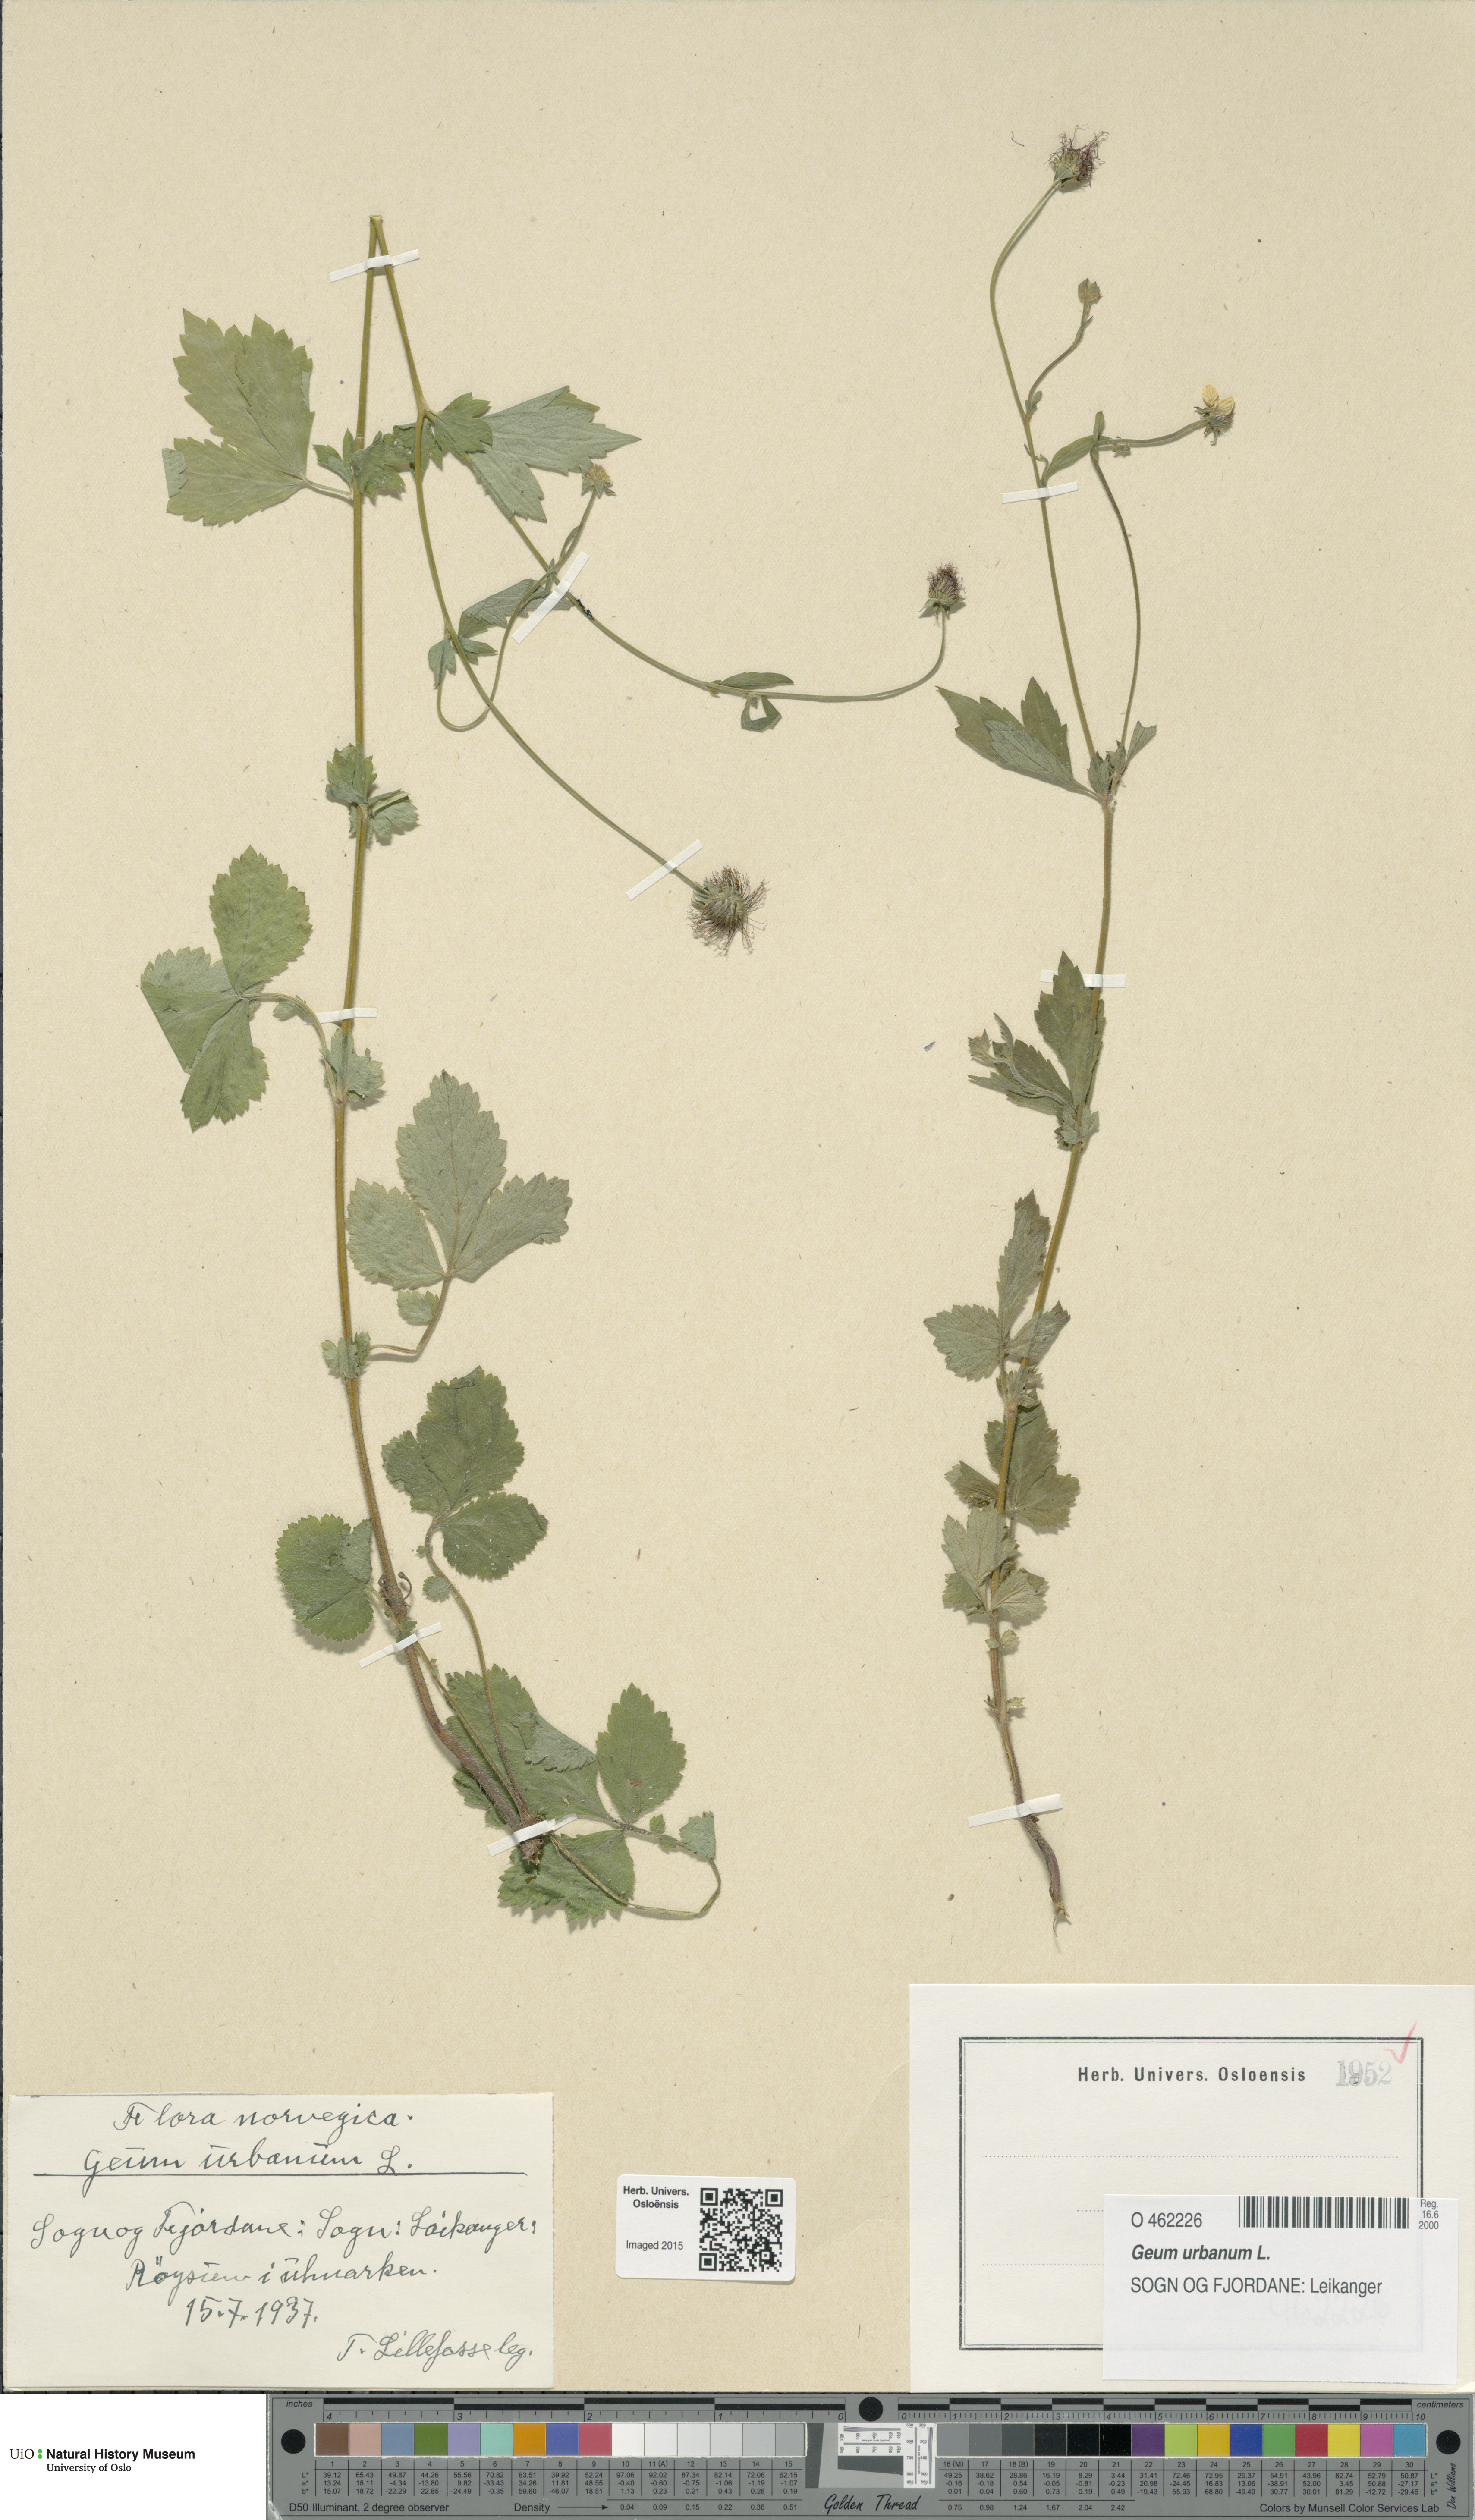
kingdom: Plantae
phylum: Tracheophyta
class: Magnoliopsida
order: Rosales
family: Rosaceae
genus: Geum
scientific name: Geum urbanum
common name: Wood avens
